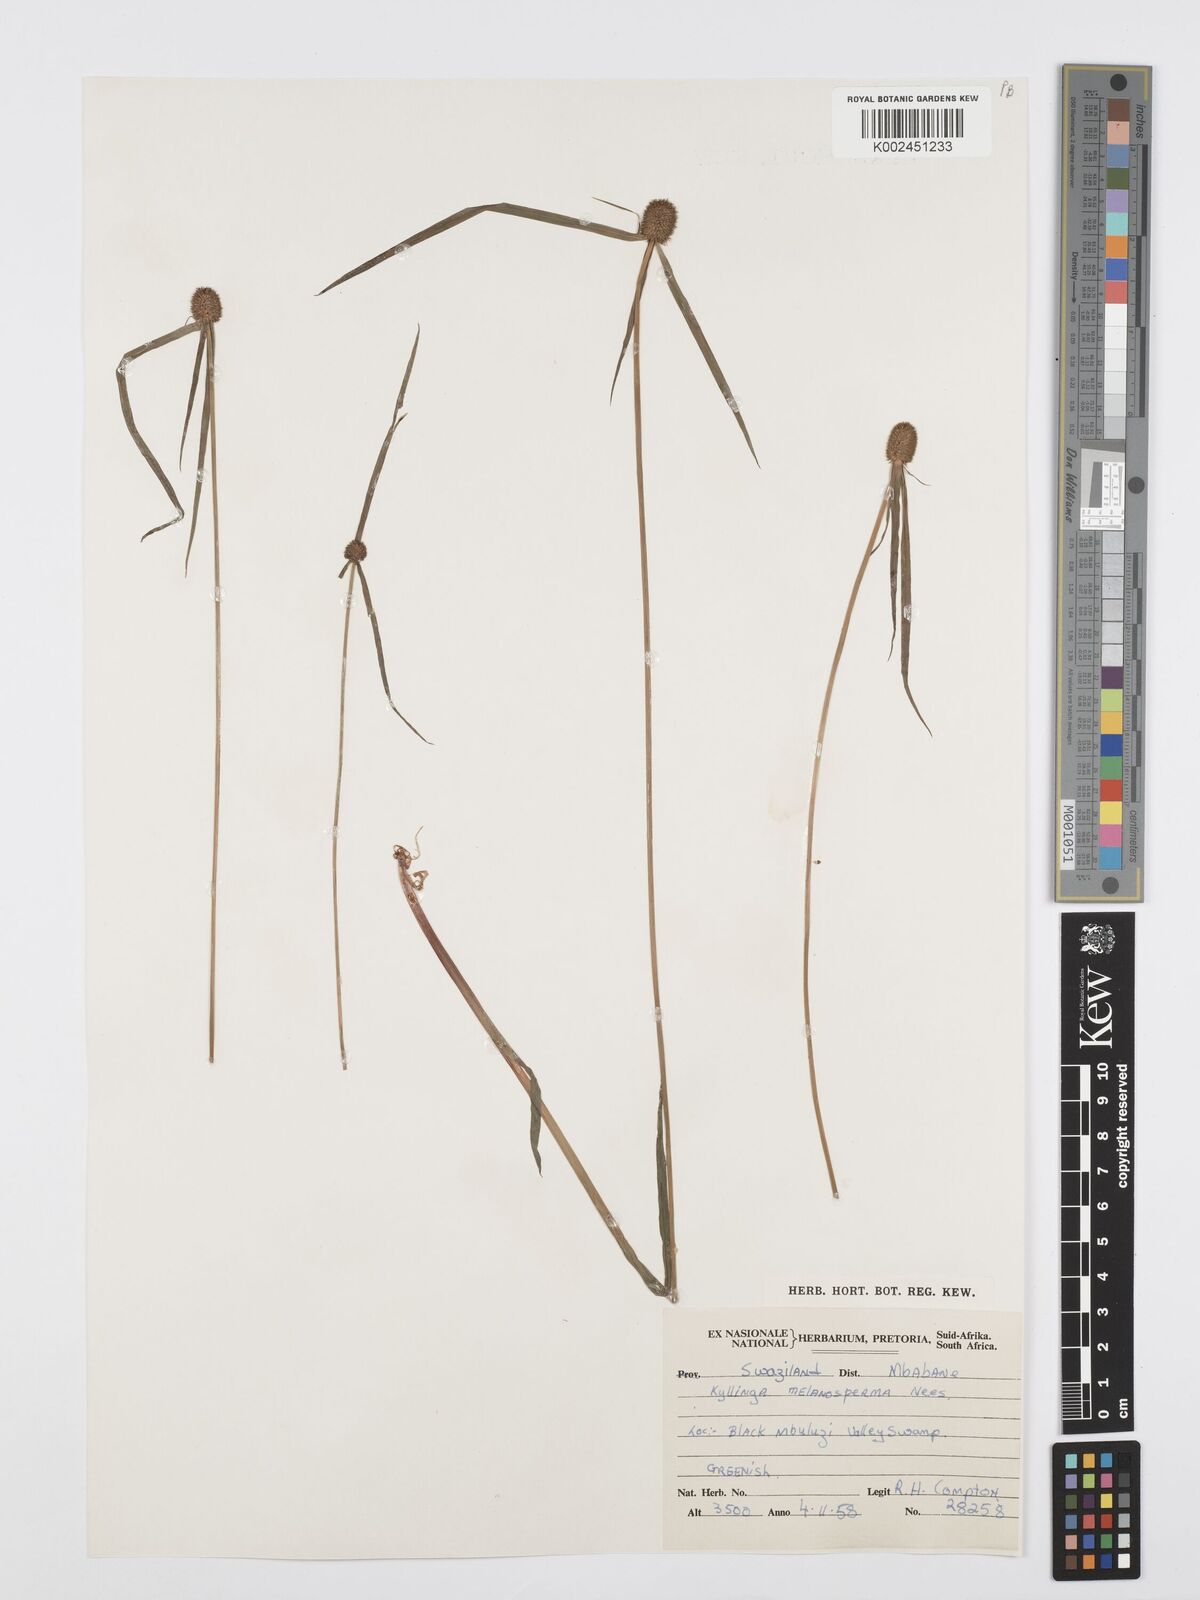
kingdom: Plantae
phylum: Tracheophyta
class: Liliopsida
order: Poales
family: Cyperaceae
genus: Cyperus
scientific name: Cyperus melanospermus
